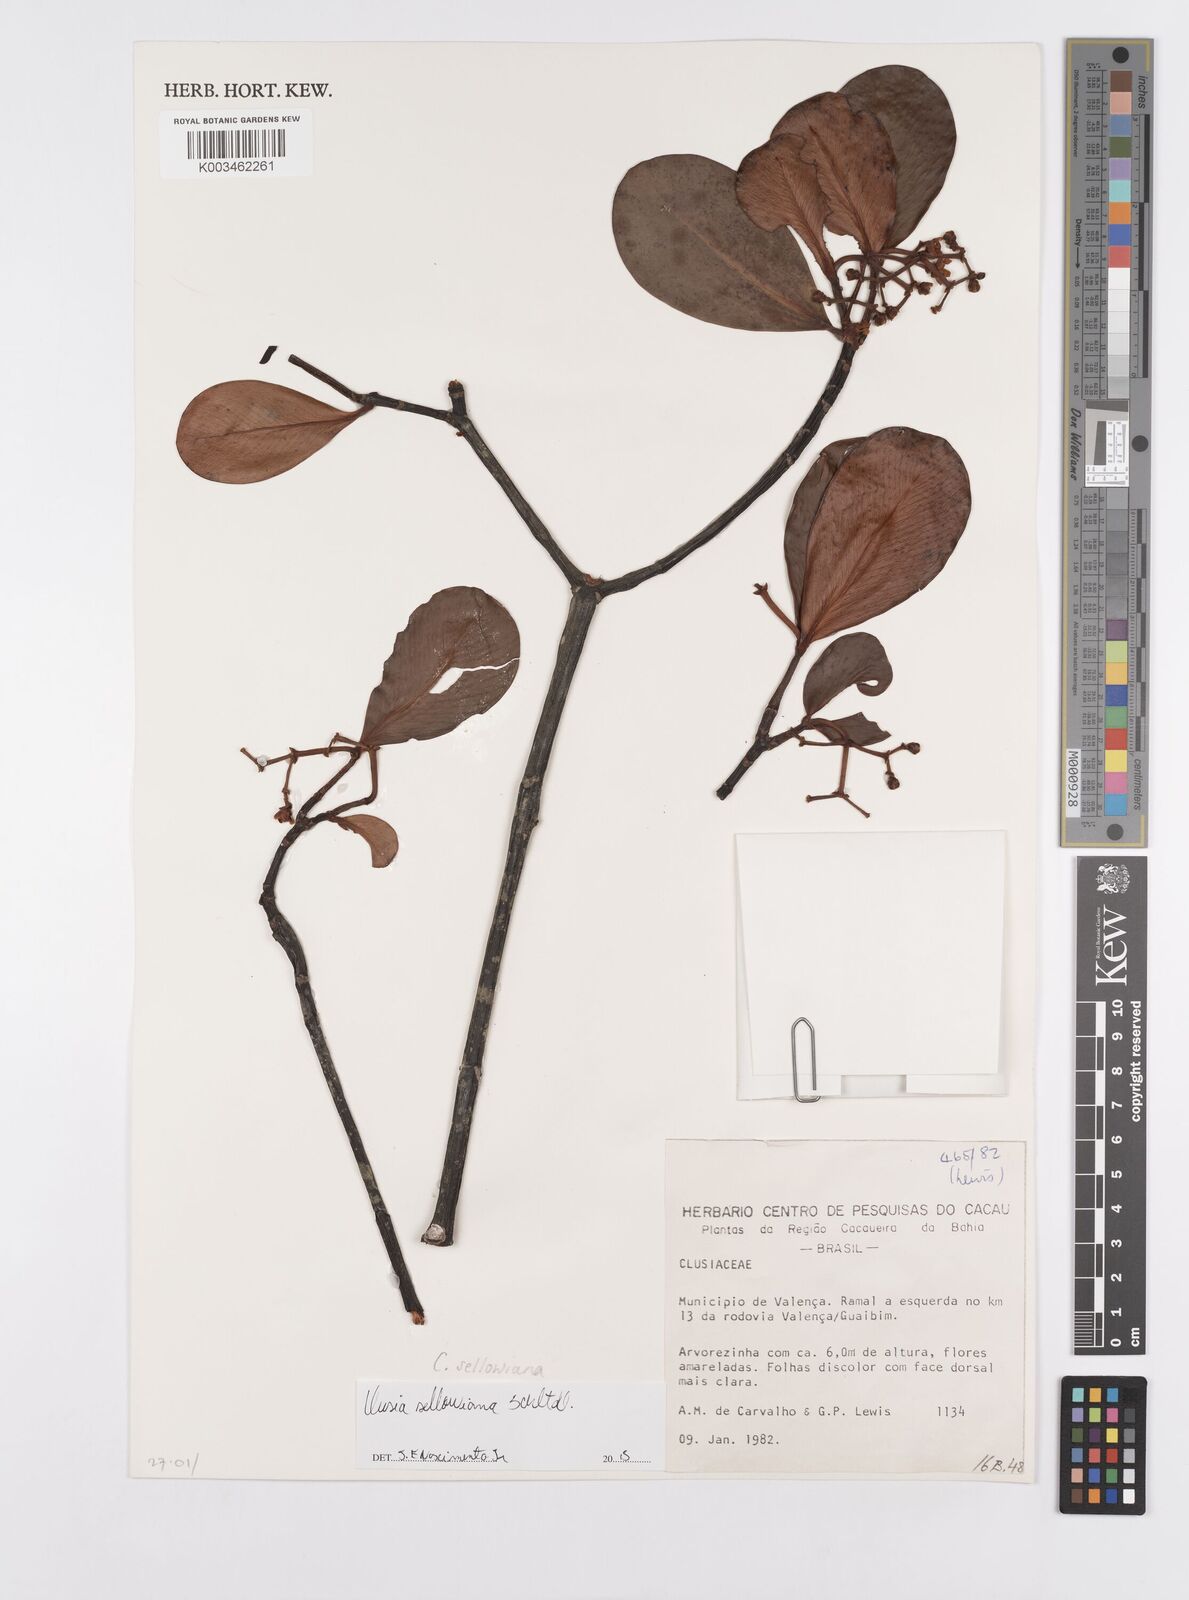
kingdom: Plantae
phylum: Tracheophyta
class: Magnoliopsida
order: Malpighiales
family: Clusiaceae
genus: Clusia
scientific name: Clusia sellowiana
